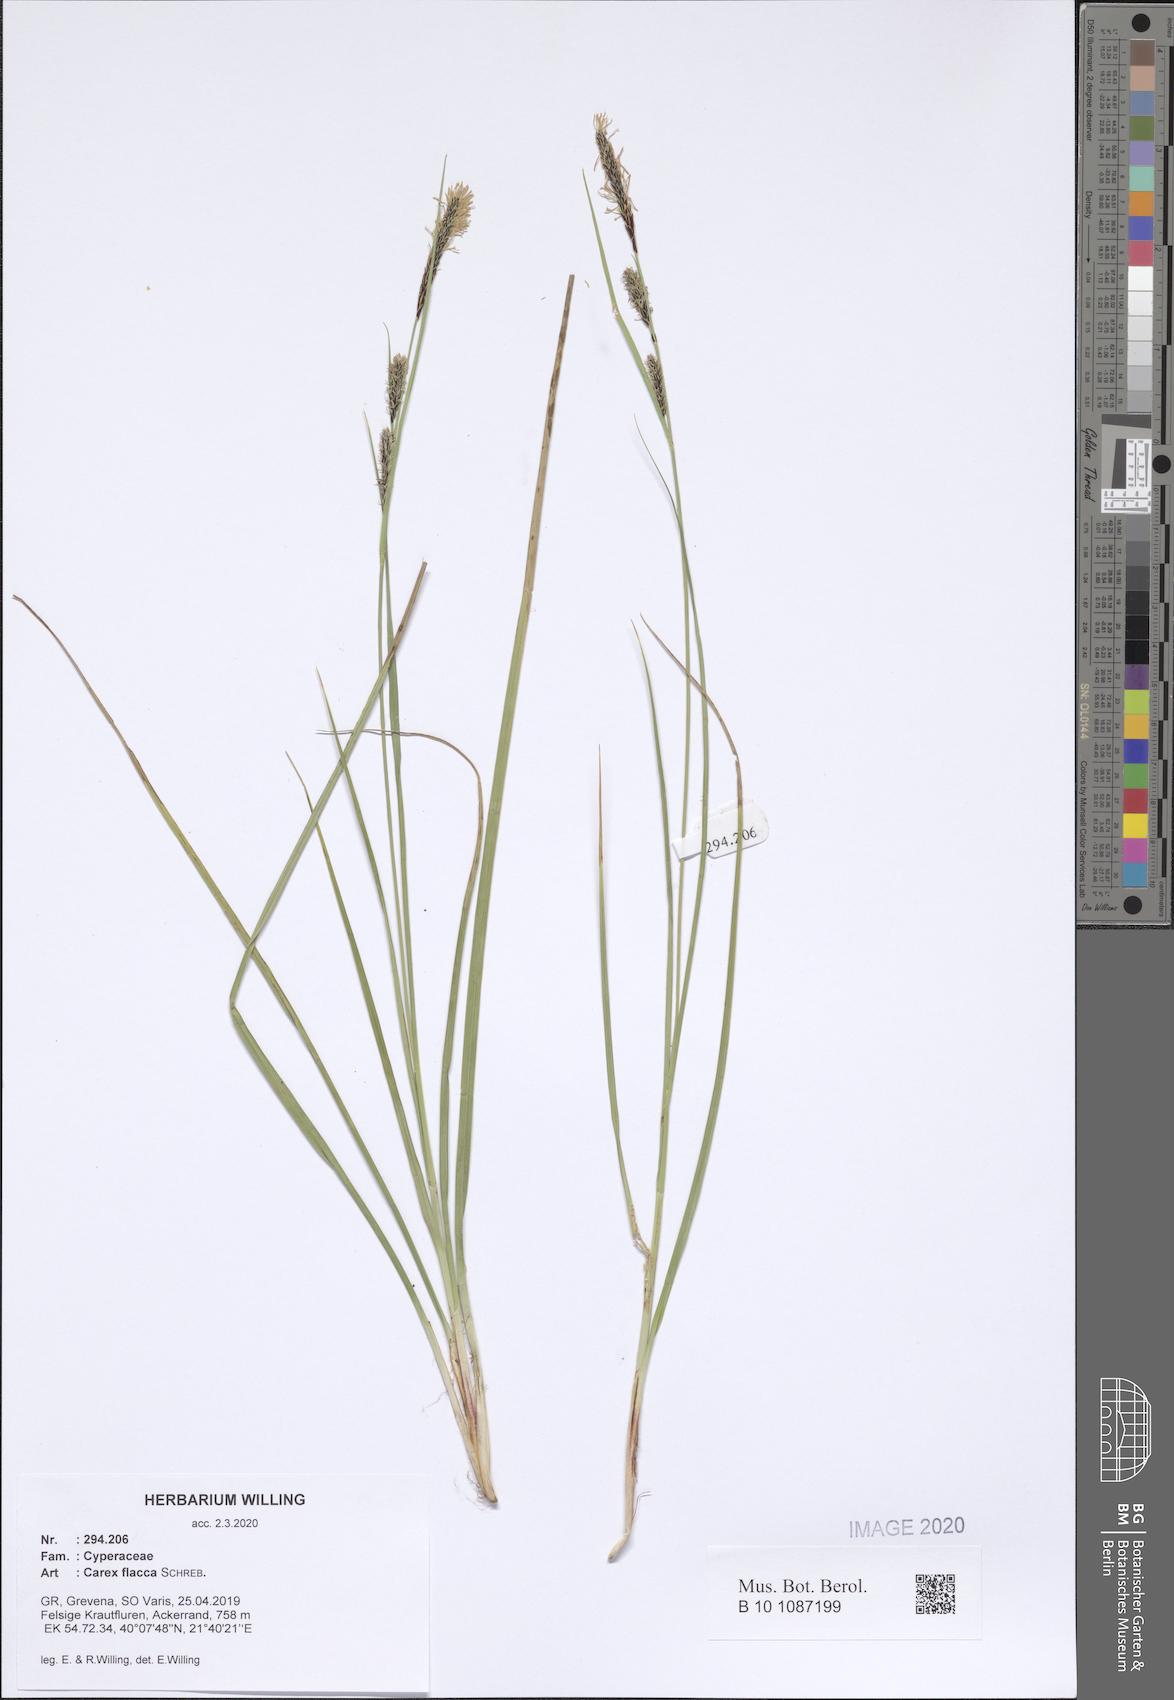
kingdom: Plantae
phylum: Tracheophyta
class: Liliopsida
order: Poales
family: Cyperaceae
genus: Carex
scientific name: Carex flacca
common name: Glaucous sedge
